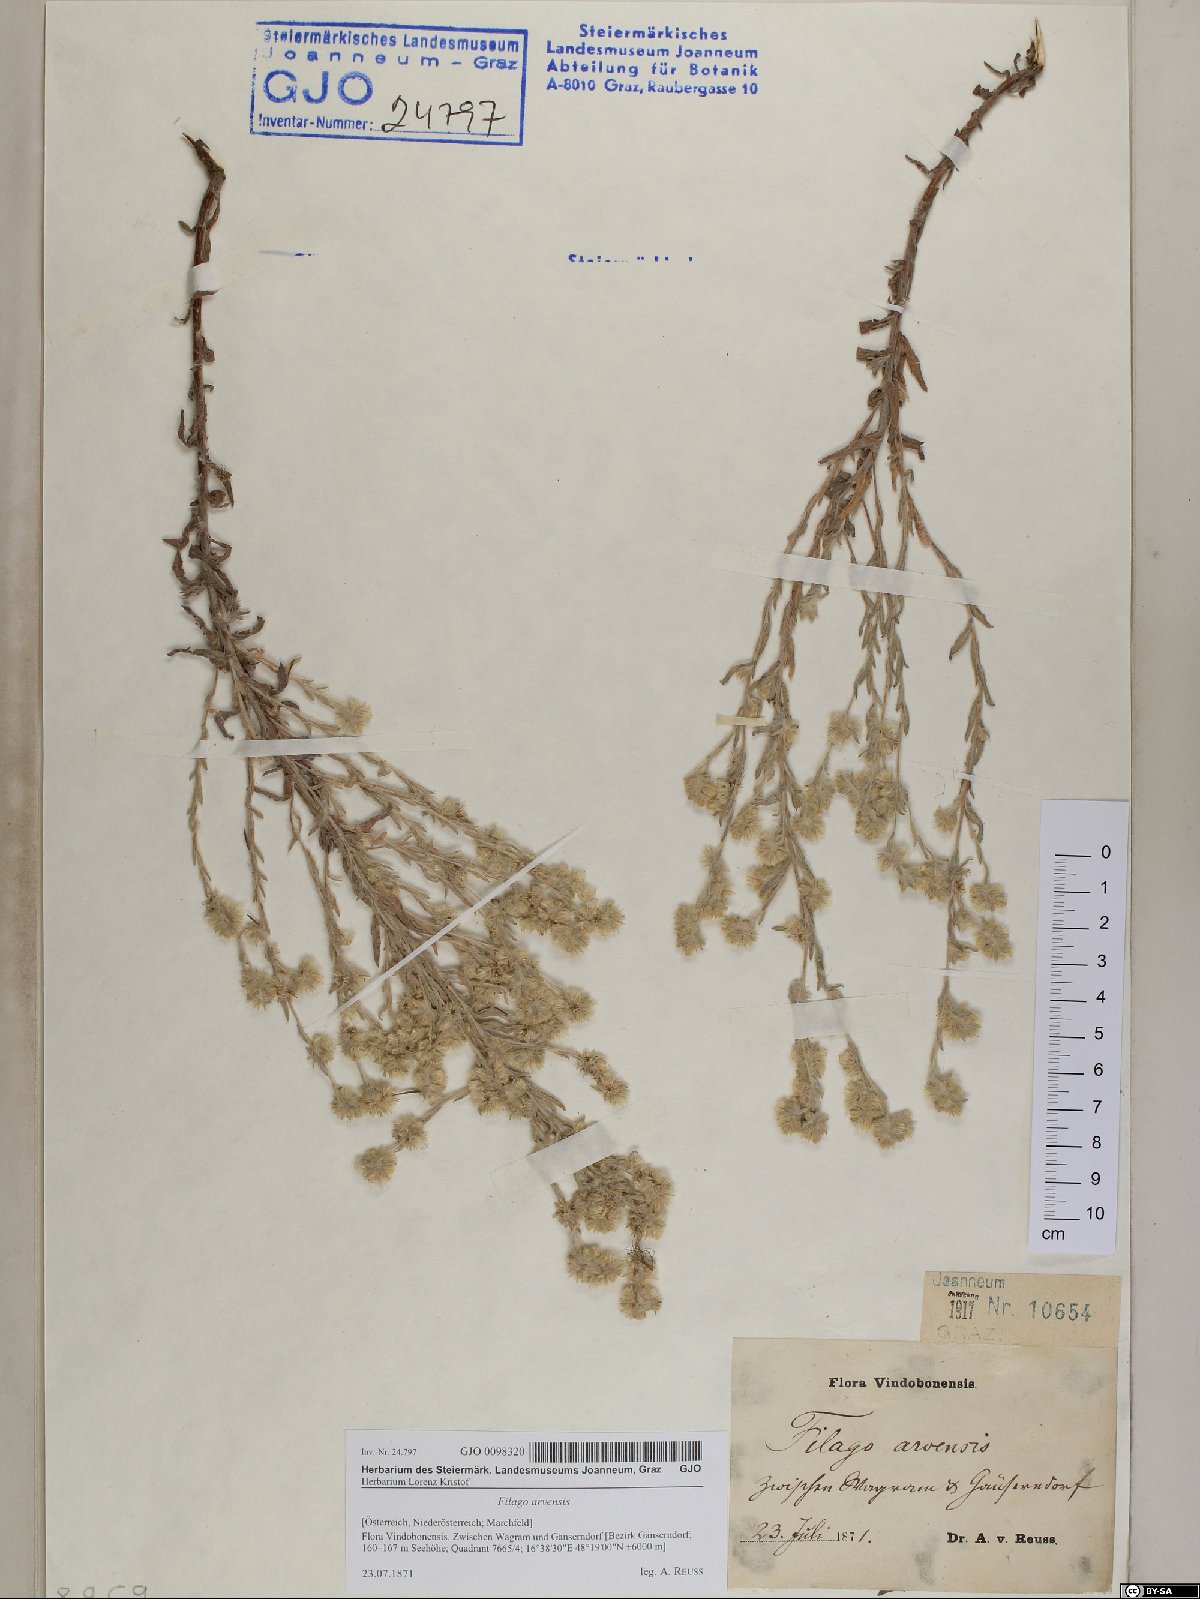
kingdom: Plantae
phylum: Tracheophyta
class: Magnoliopsida
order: Asterales
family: Asteraceae
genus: Filago
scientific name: Filago arvensis
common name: Field cudweed
